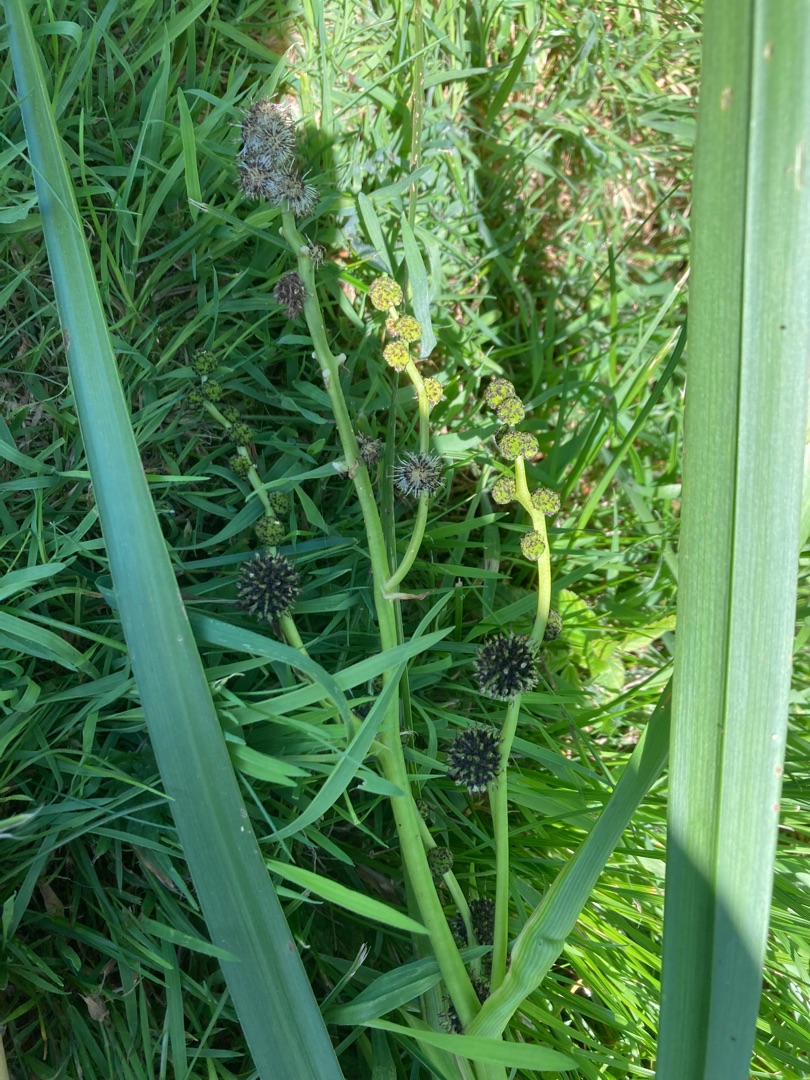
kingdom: Plantae
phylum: Tracheophyta
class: Liliopsida
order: Poales
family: Typhaceae
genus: Sparganium
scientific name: Sparganium erectum
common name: Grenet pindsvineknop
